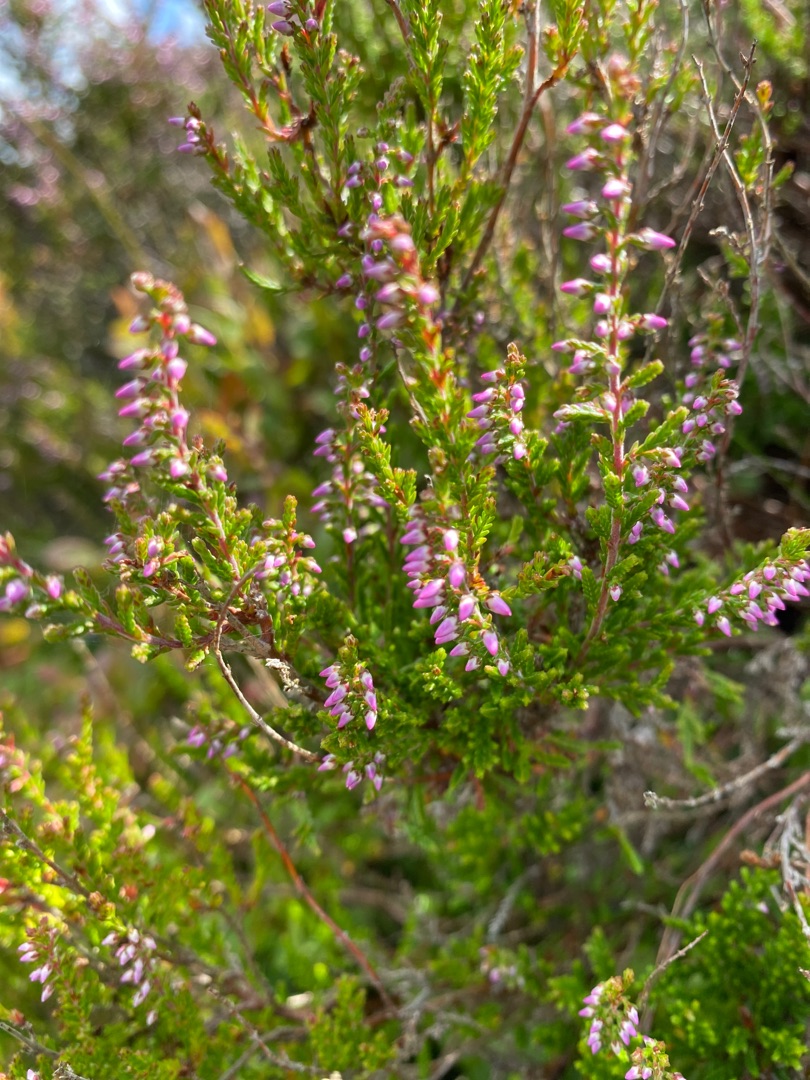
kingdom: Plantae
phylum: Tracheophyta
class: Magnoliopsida
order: Ericales
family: Ericaceae
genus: Calluna
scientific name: Calluna vulgaris
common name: Hedelyng
